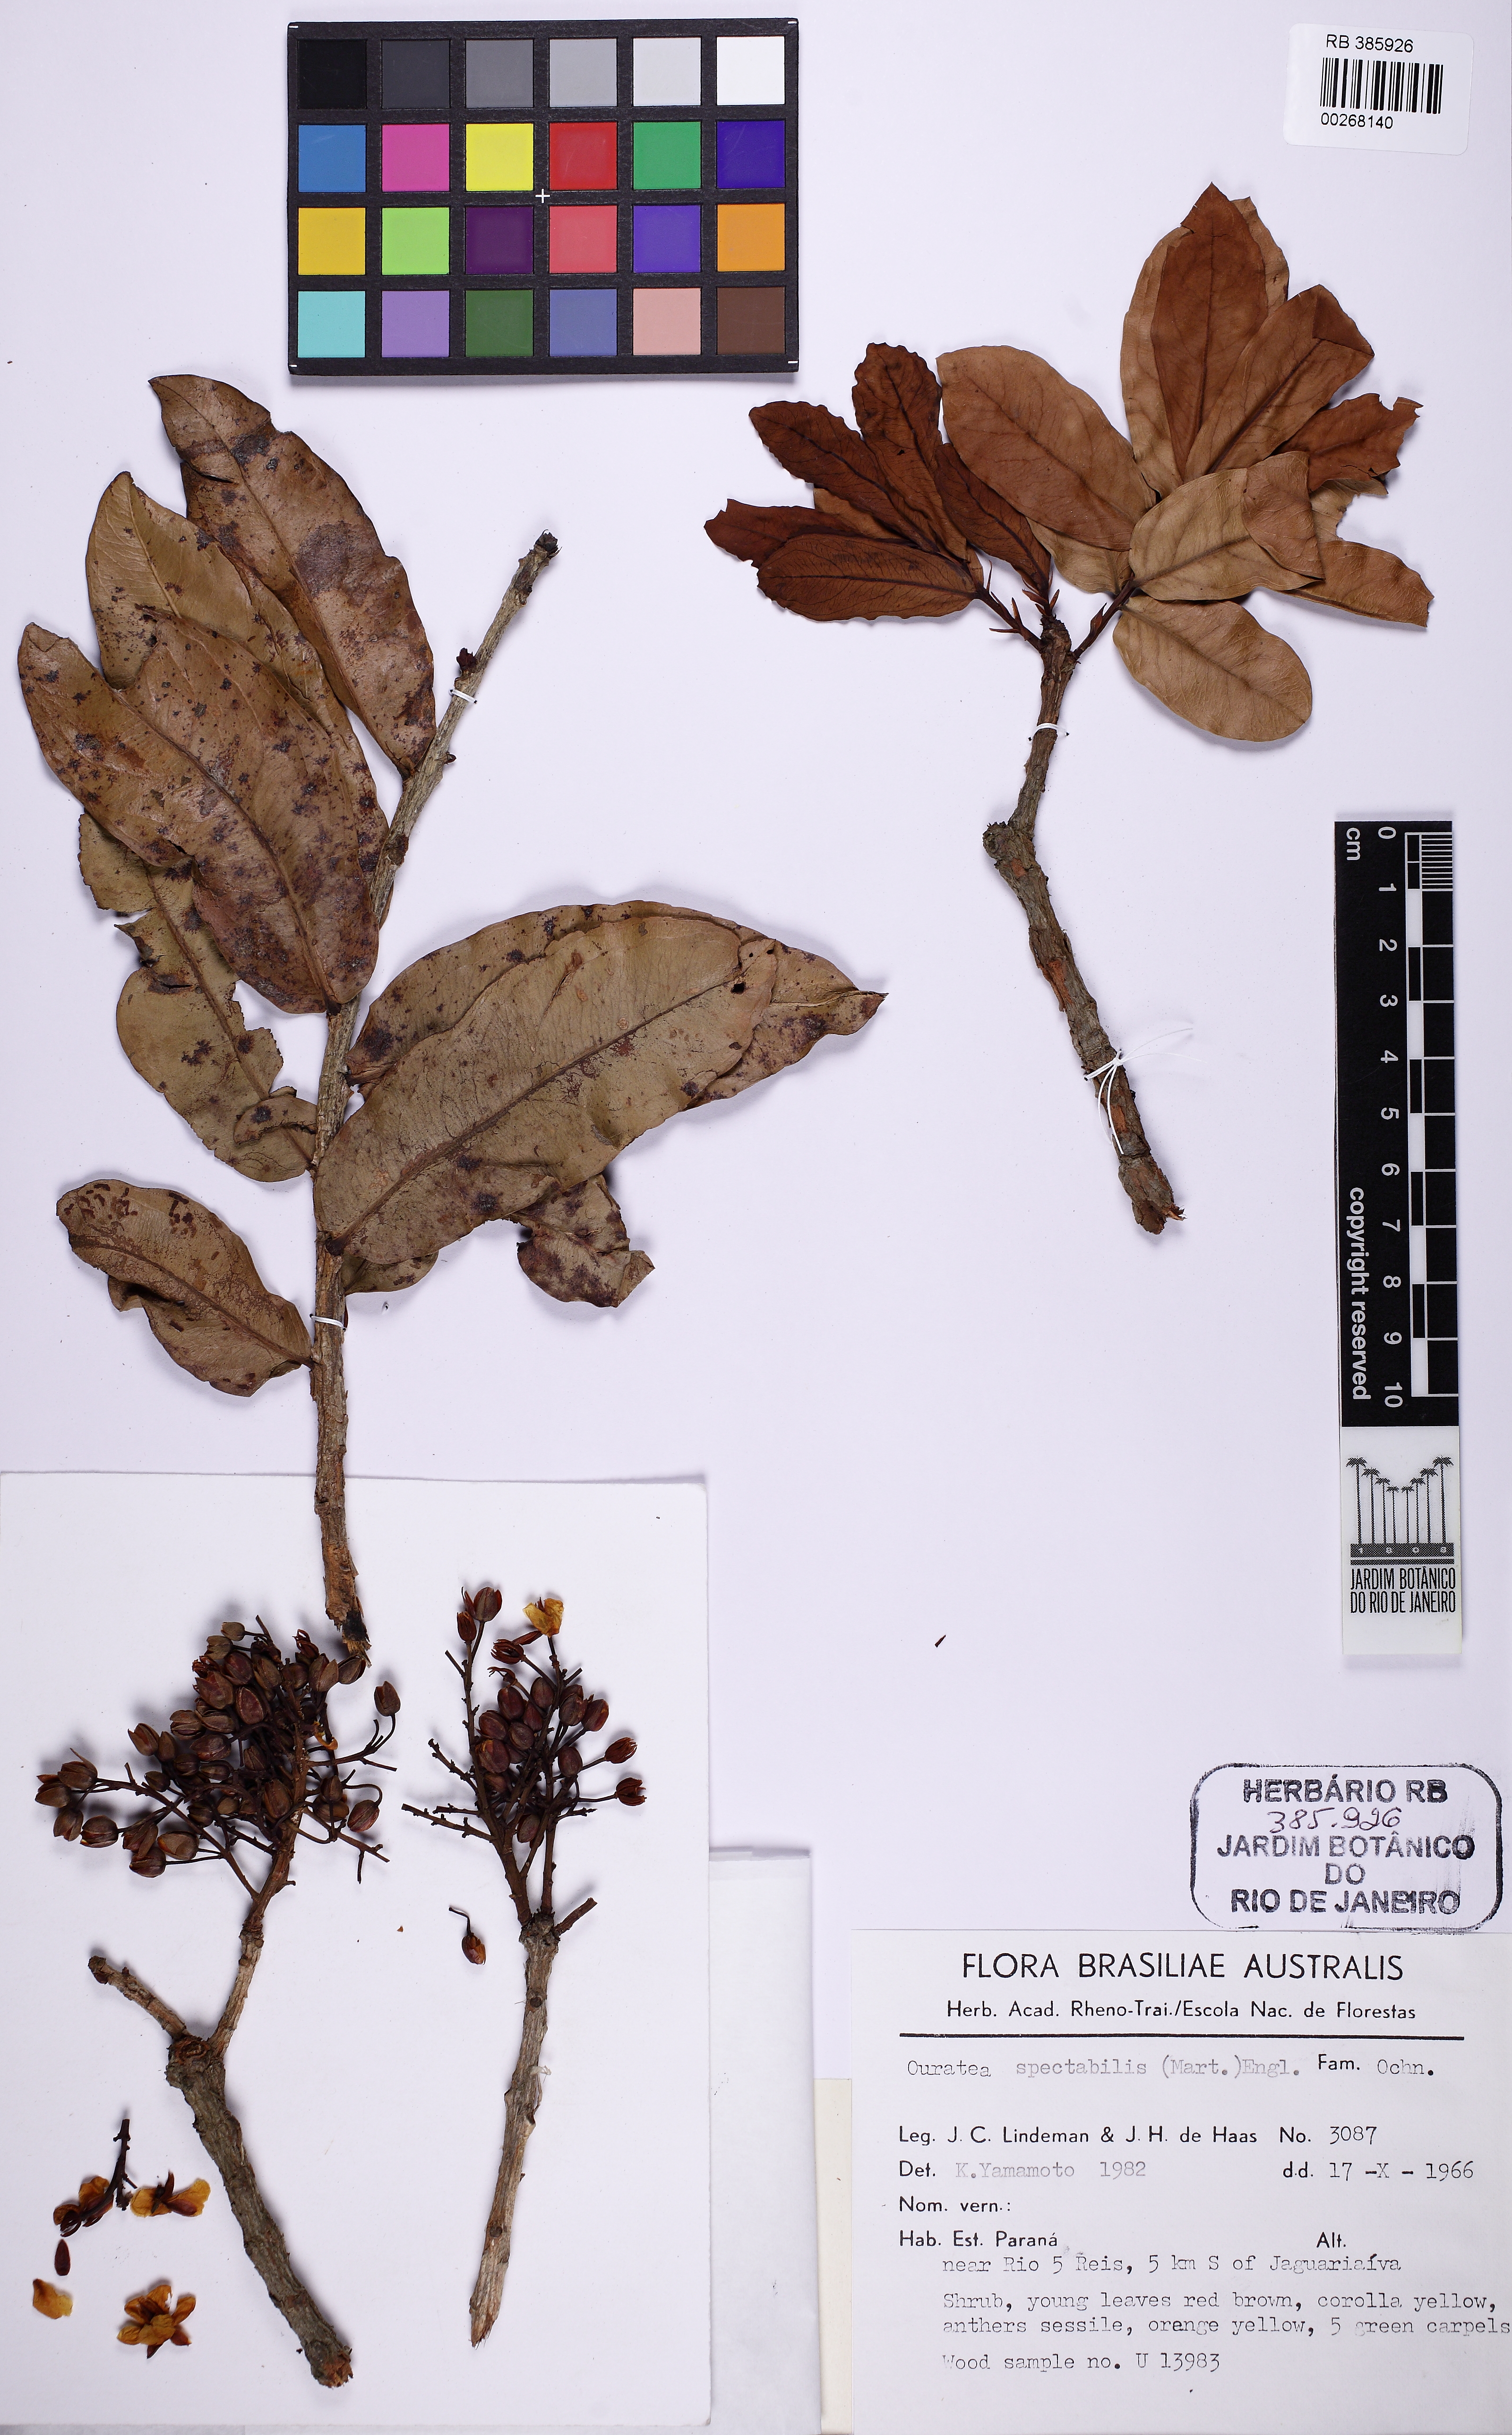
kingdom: Plantae
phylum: Tracheophyta
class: Magnoliopsida
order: Malpighiales
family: Ochnaceae
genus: Ouratea
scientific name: Ouratea spectabilis
